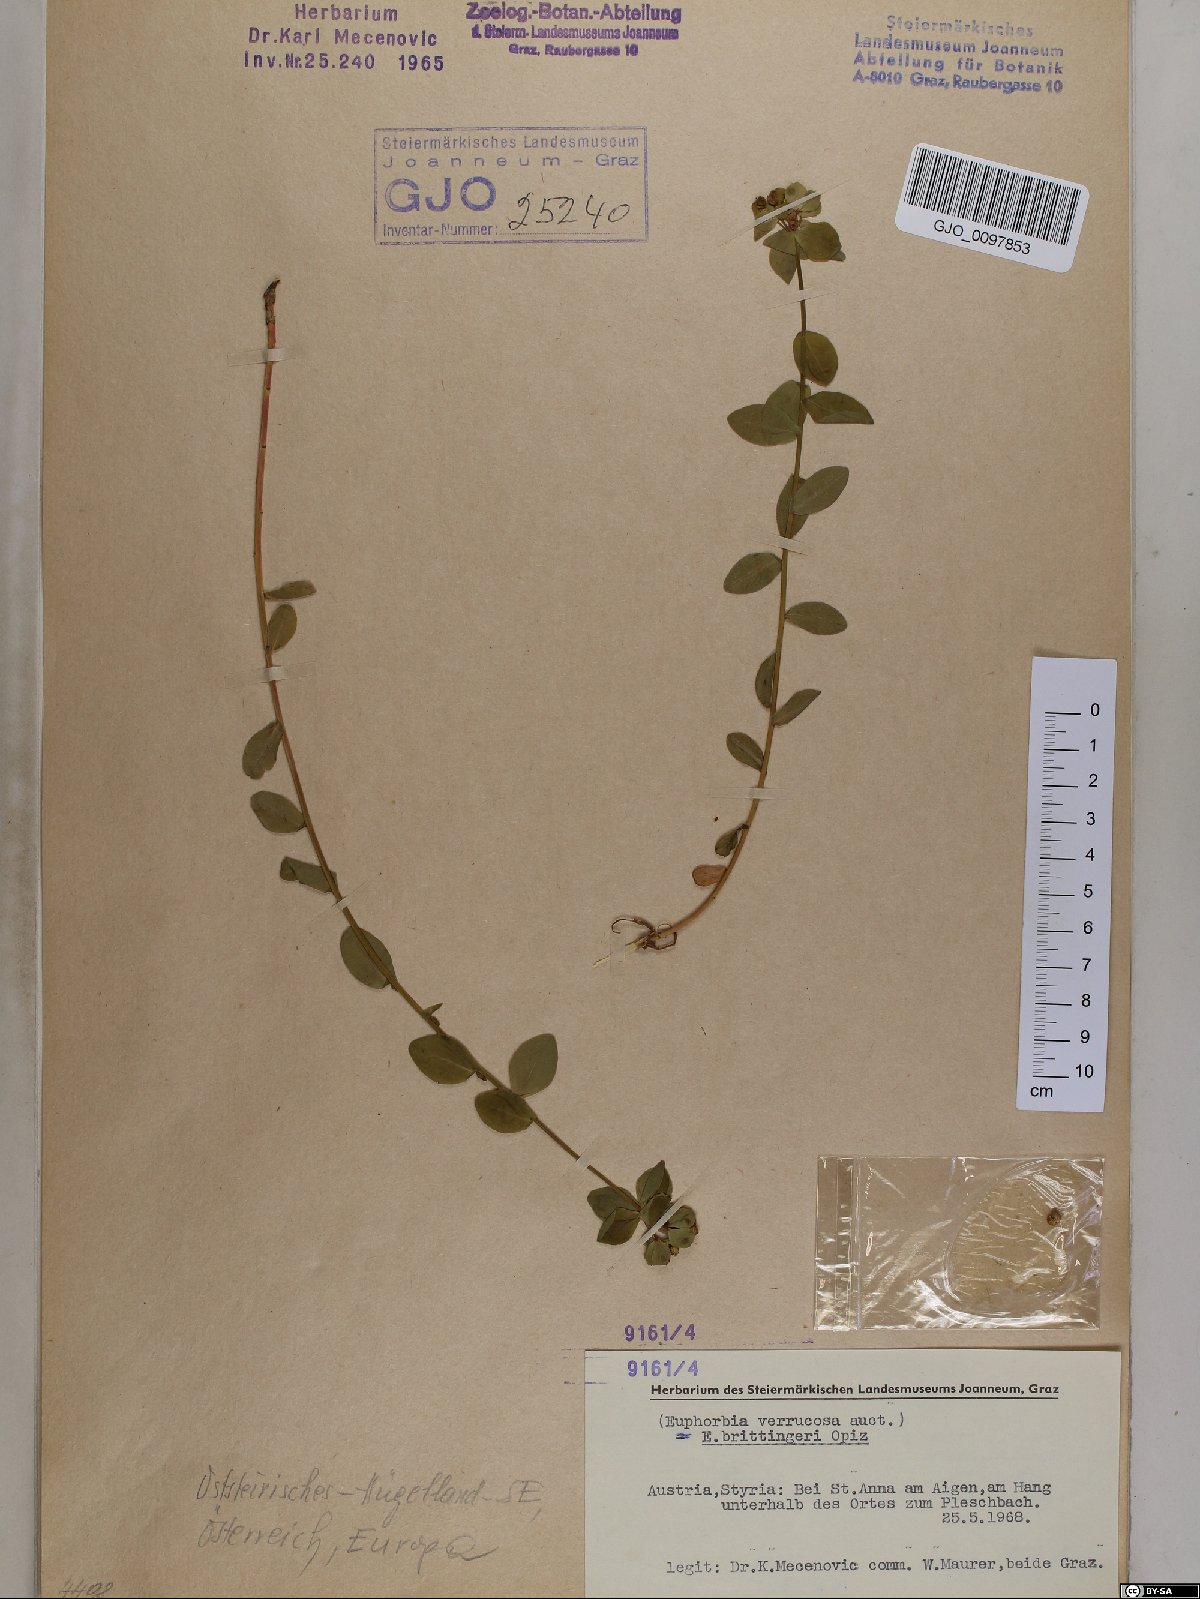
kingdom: Plantae
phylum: Tracheophyta
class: Magnoliopsida
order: Malpighiales
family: Euphorbiaceae
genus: Euphorbia
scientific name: Euphorbia verrucosa
